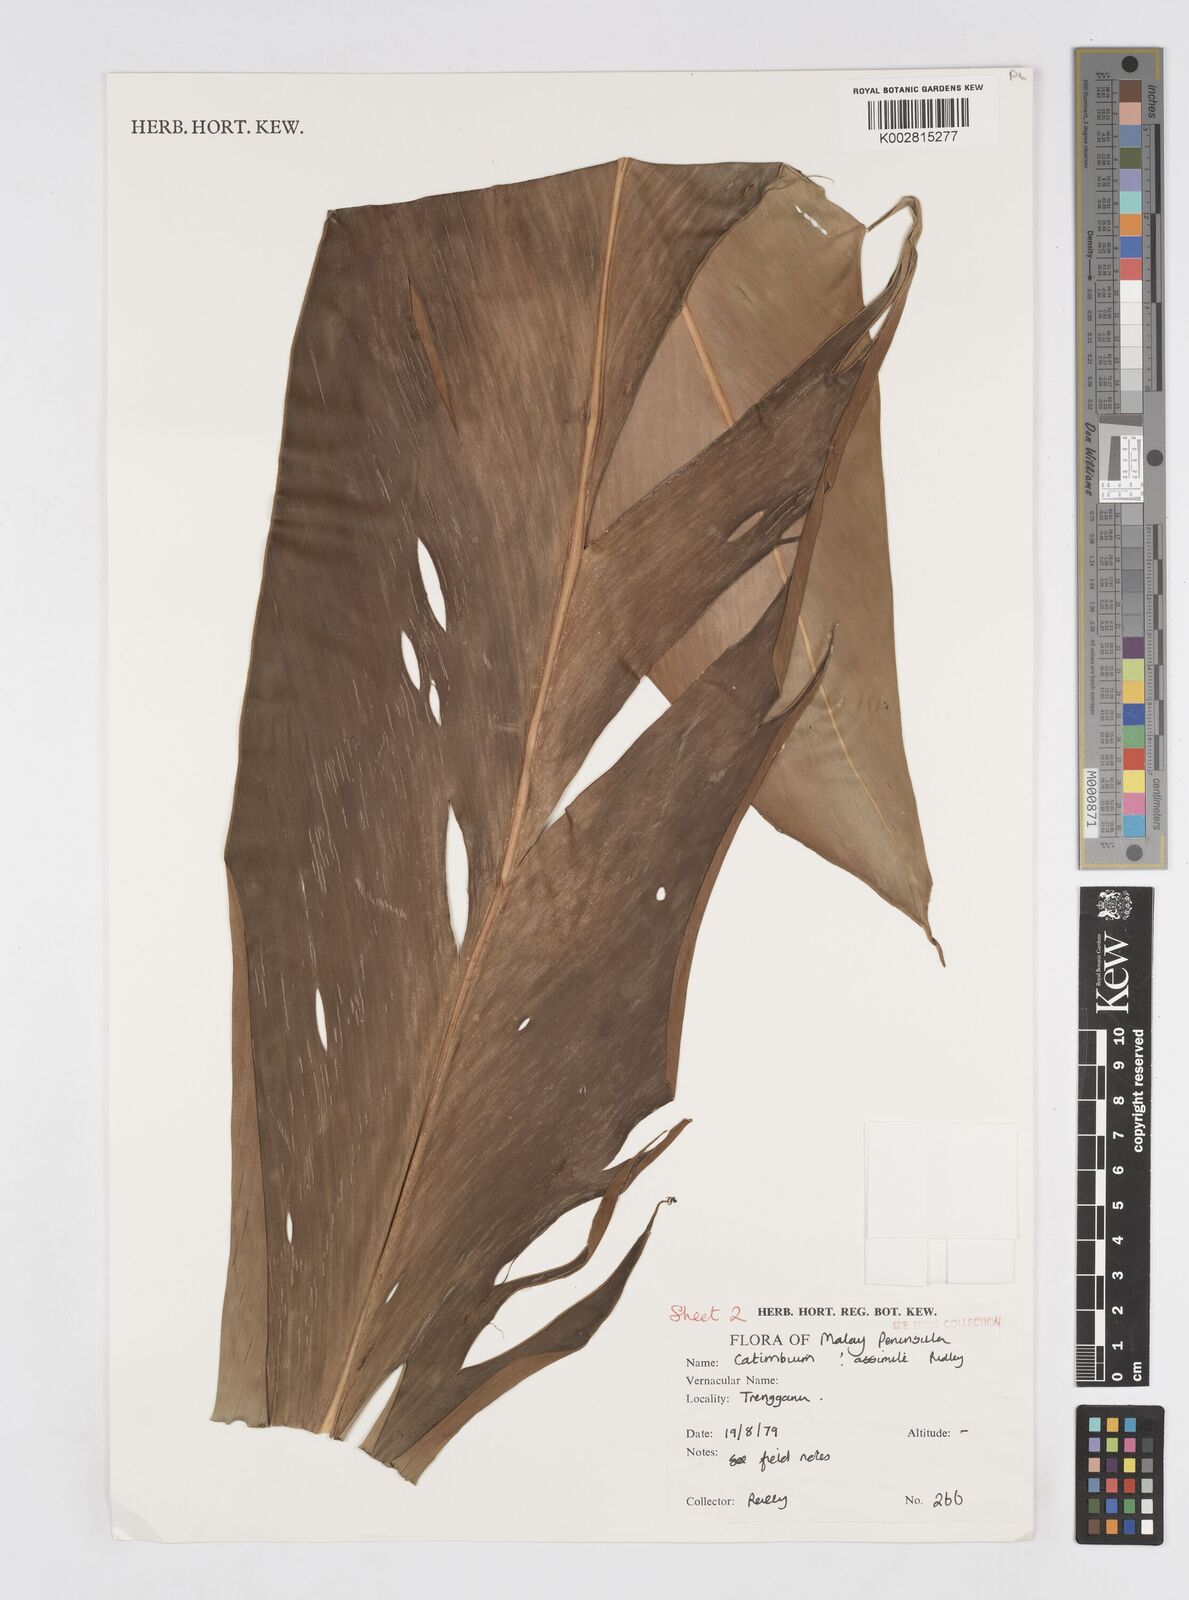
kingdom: Plantae
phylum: Tracheophyta
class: Liliopsida
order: Zingiberales
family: Zingiberaceae
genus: Alpinia
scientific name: Alpinia assimilis
